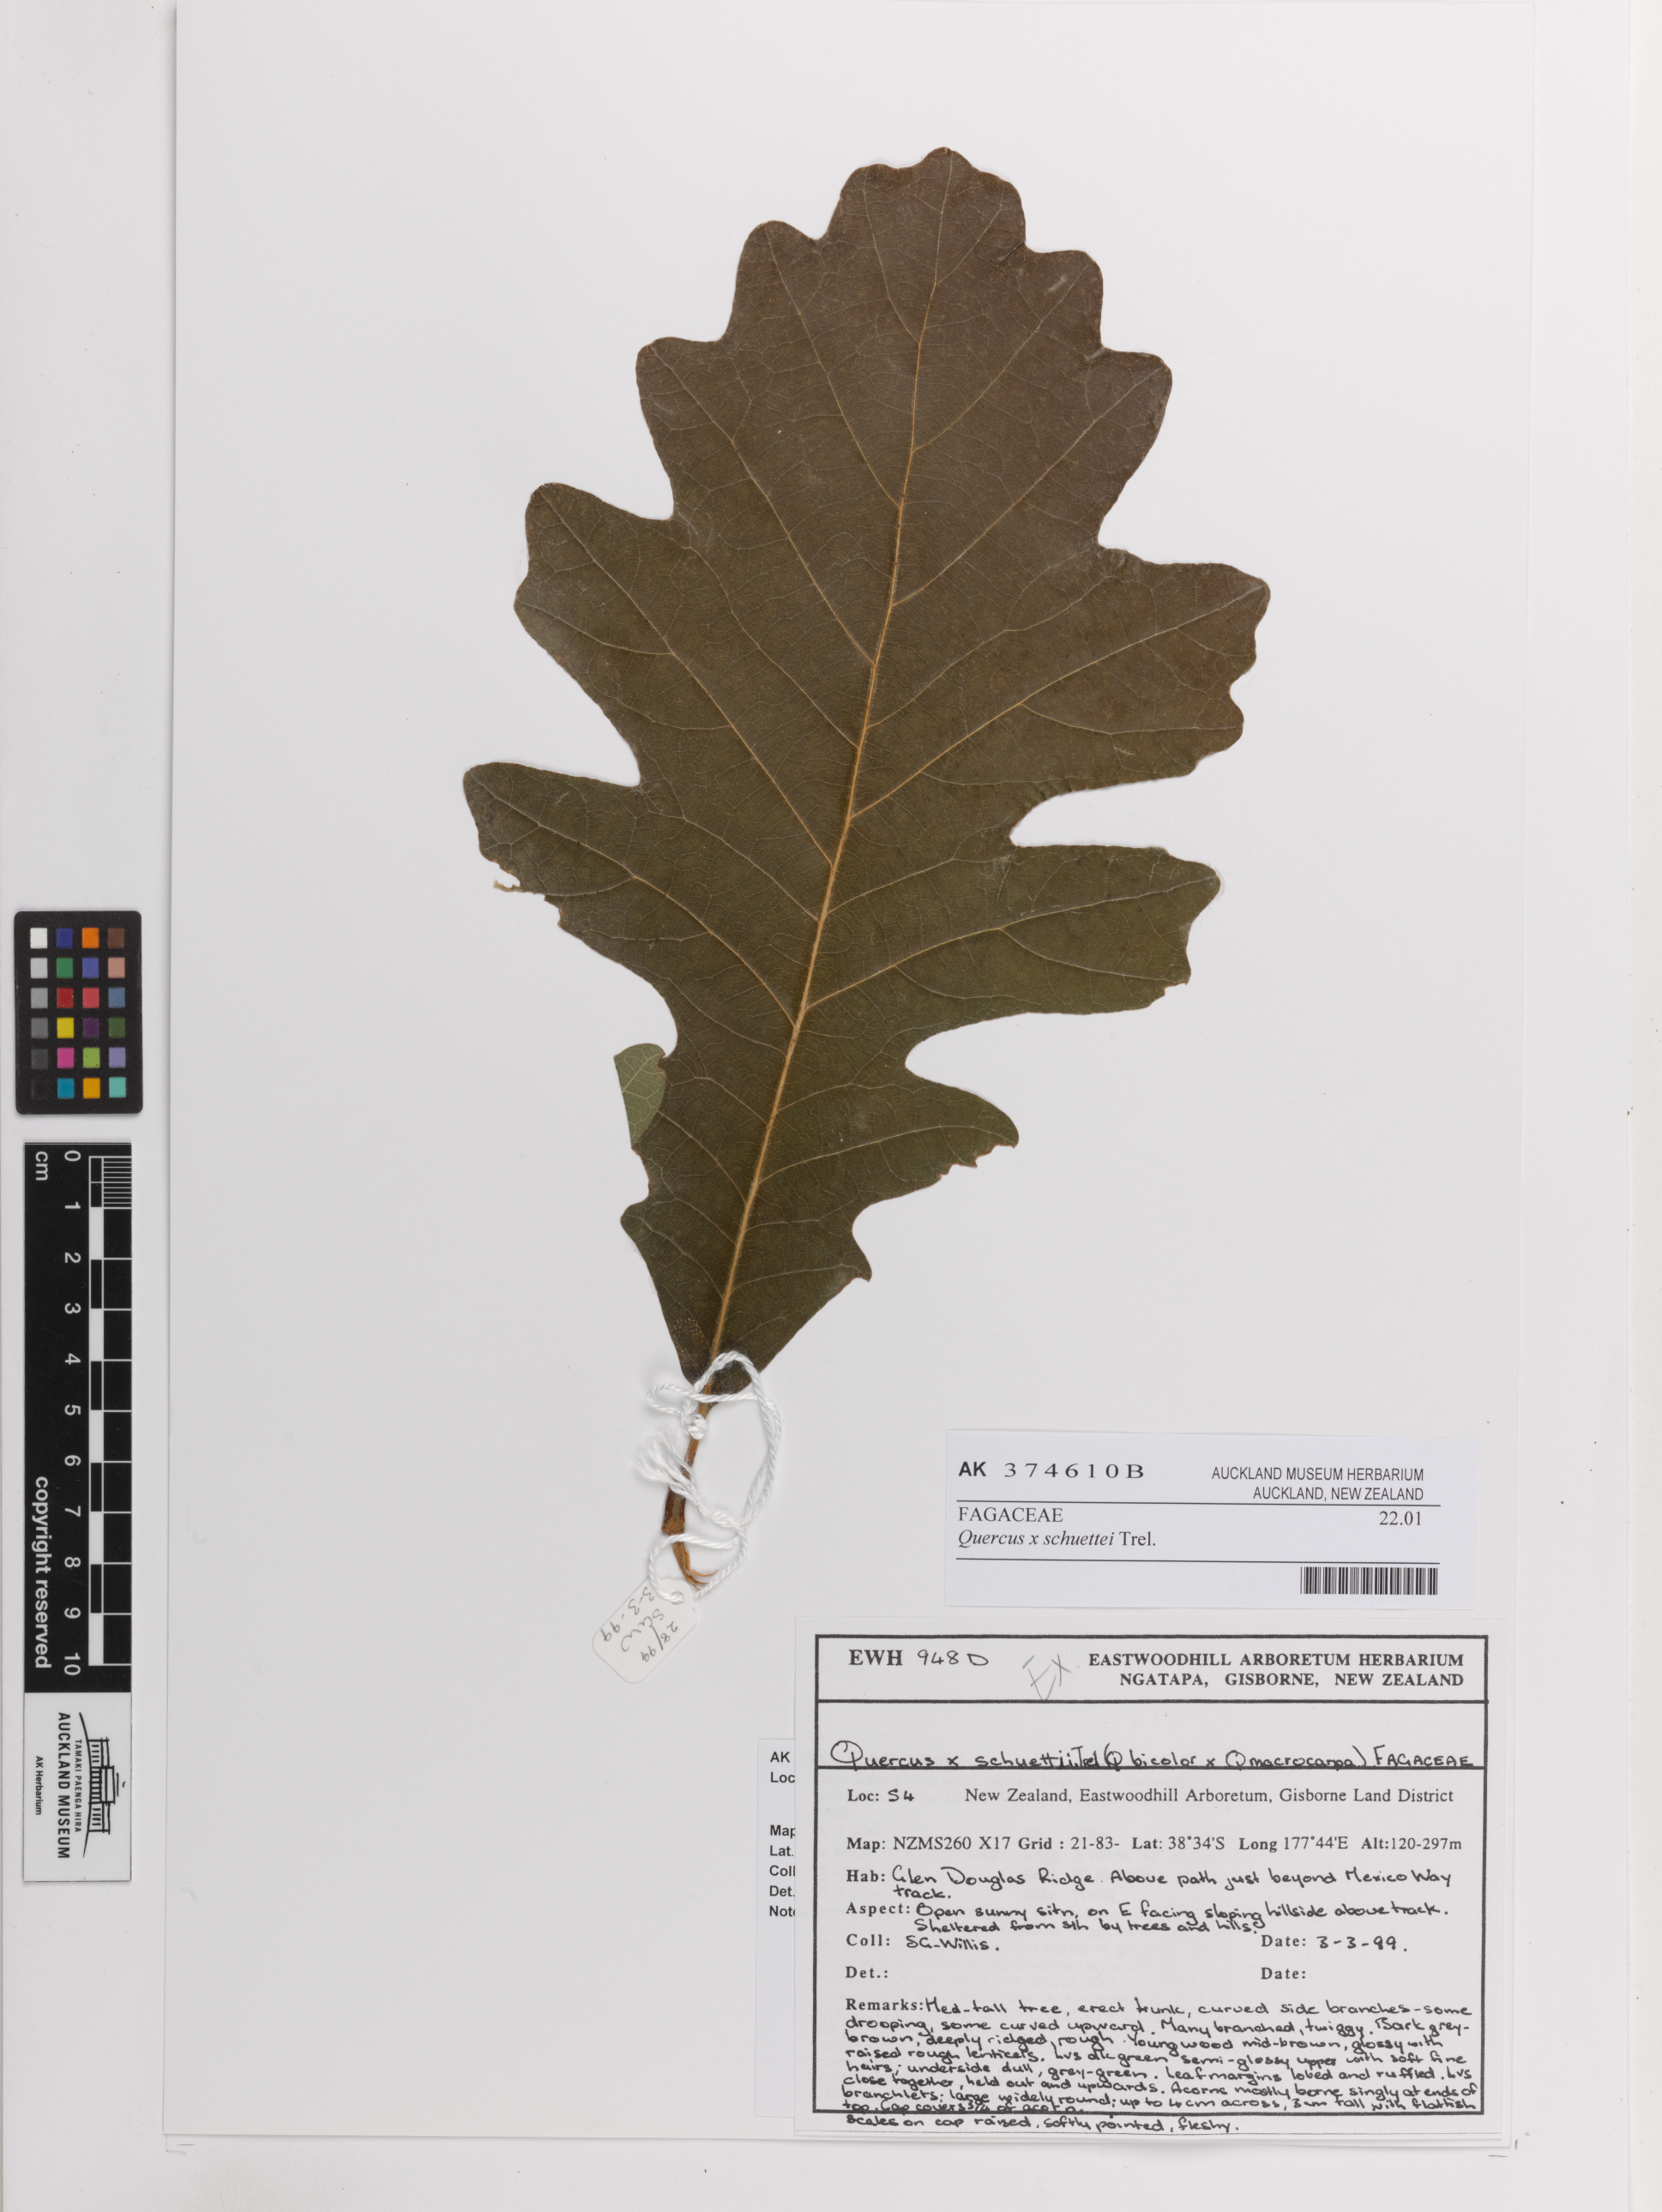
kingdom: Plantae
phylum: Tracheophyta
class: Magnoliopsida
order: Fagales
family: Fagaceae
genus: Quercus
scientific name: Quercus schuettei
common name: Schuette's oak
